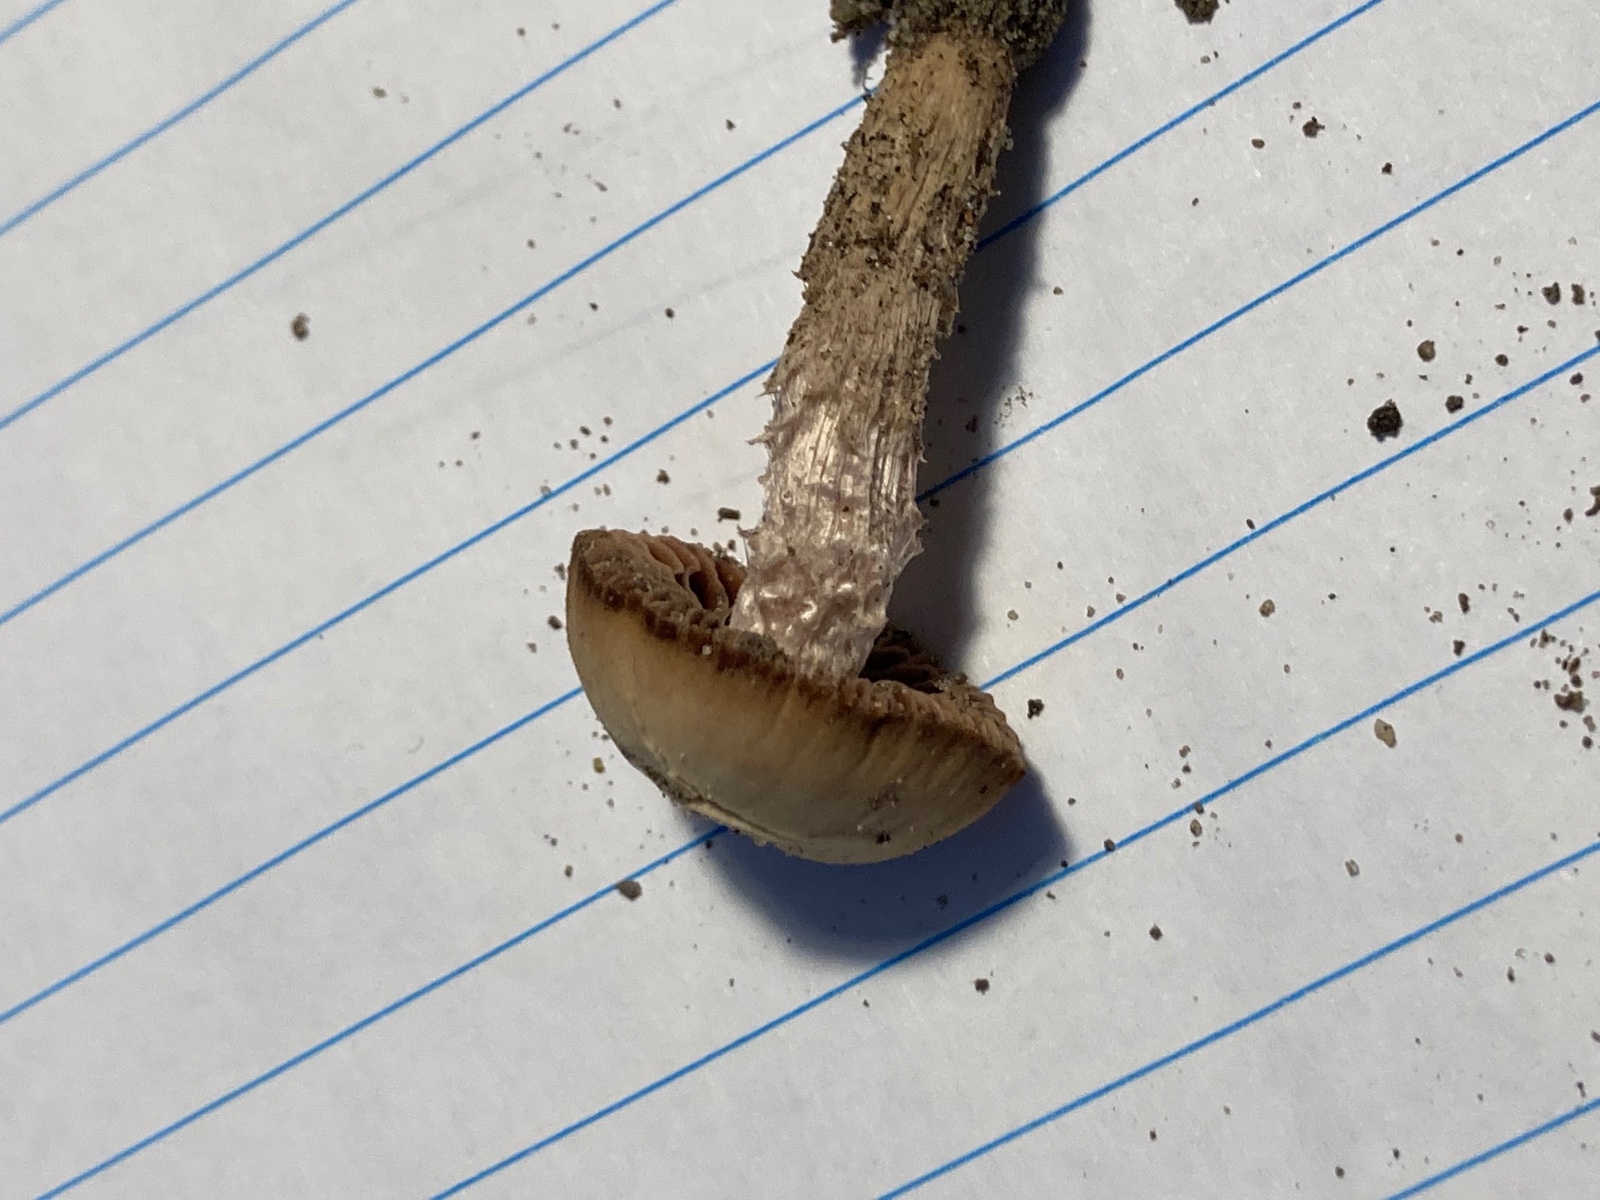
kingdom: Fungi
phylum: Basidiomycota
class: Agaricomycetes
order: Agaricales
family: Psathyrellaceae
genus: Psathyrella
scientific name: Psathyrella
